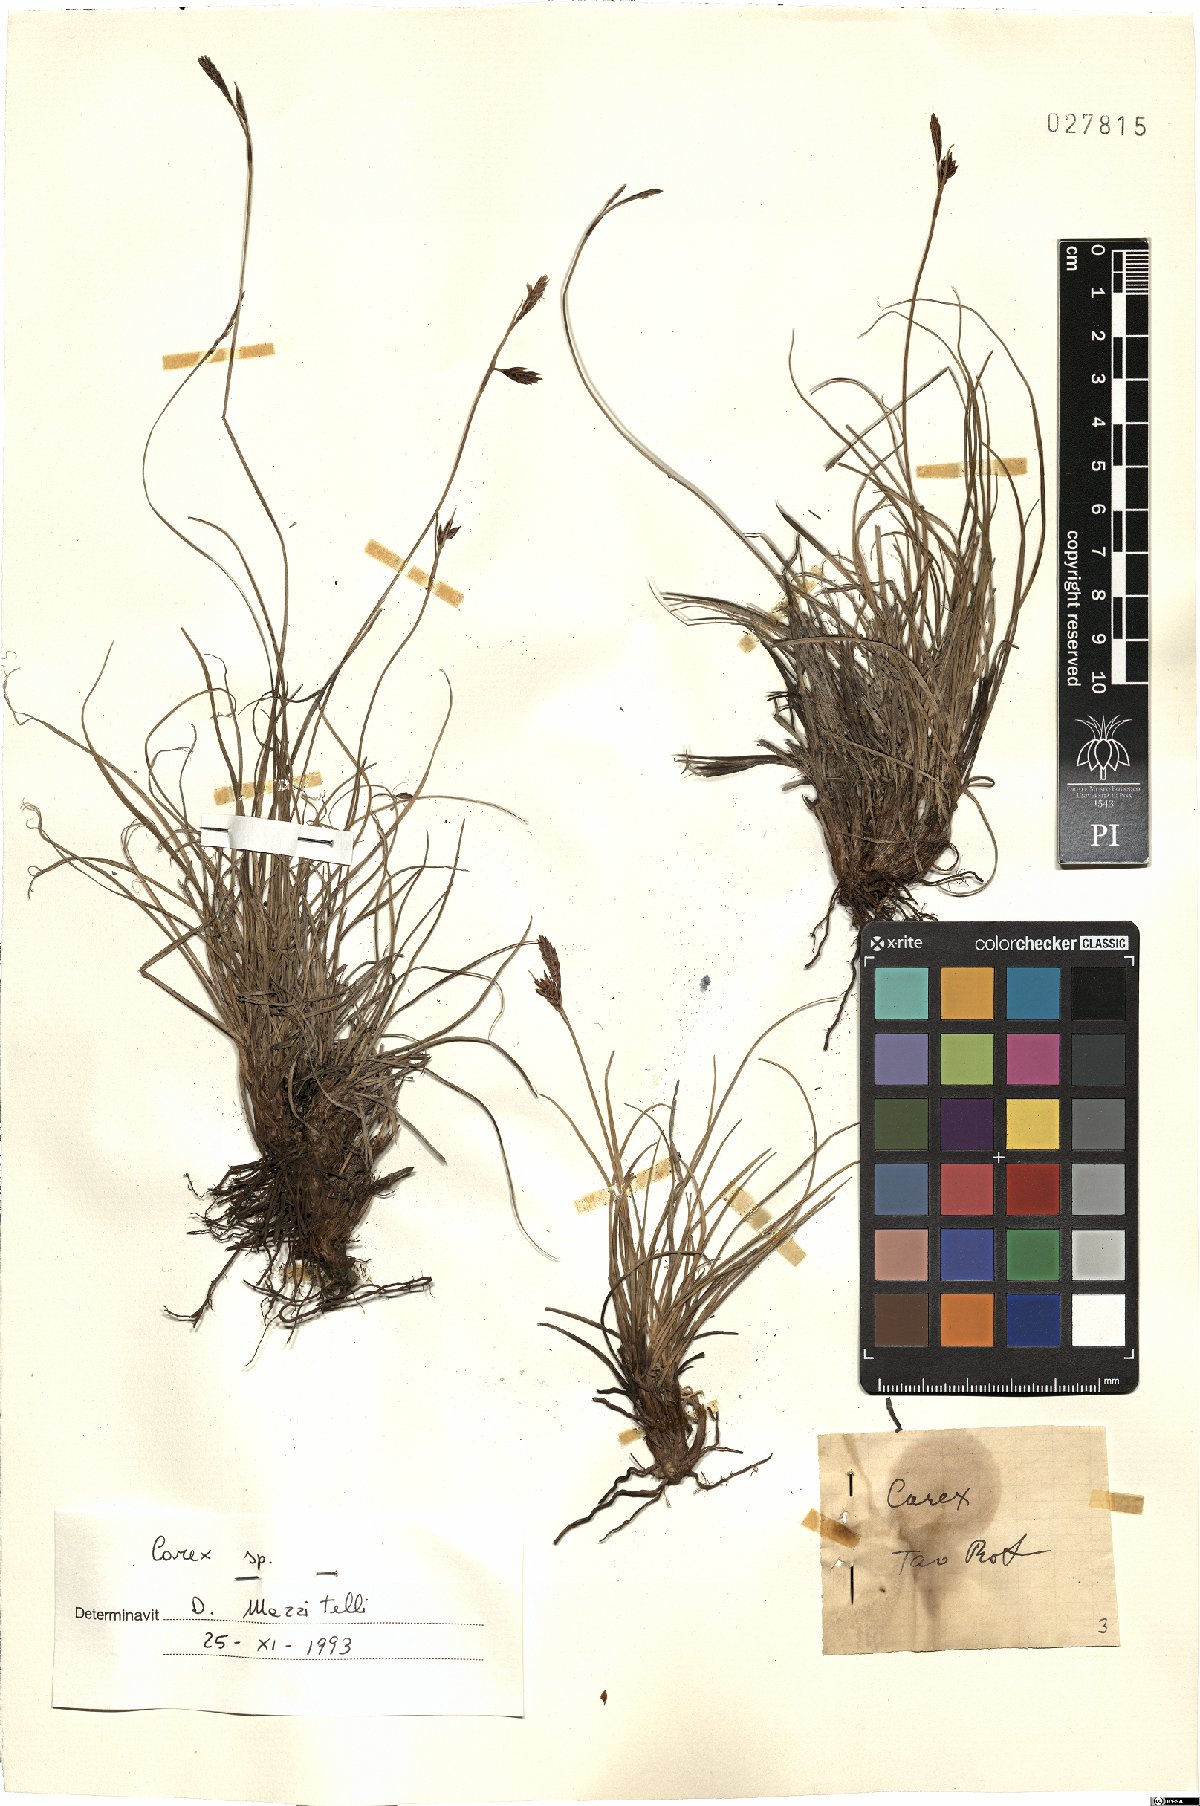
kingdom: Plantae
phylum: Tracheophyta
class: Liliopsida
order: Poales
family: Cyperaceae
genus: Carex
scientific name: Carex
